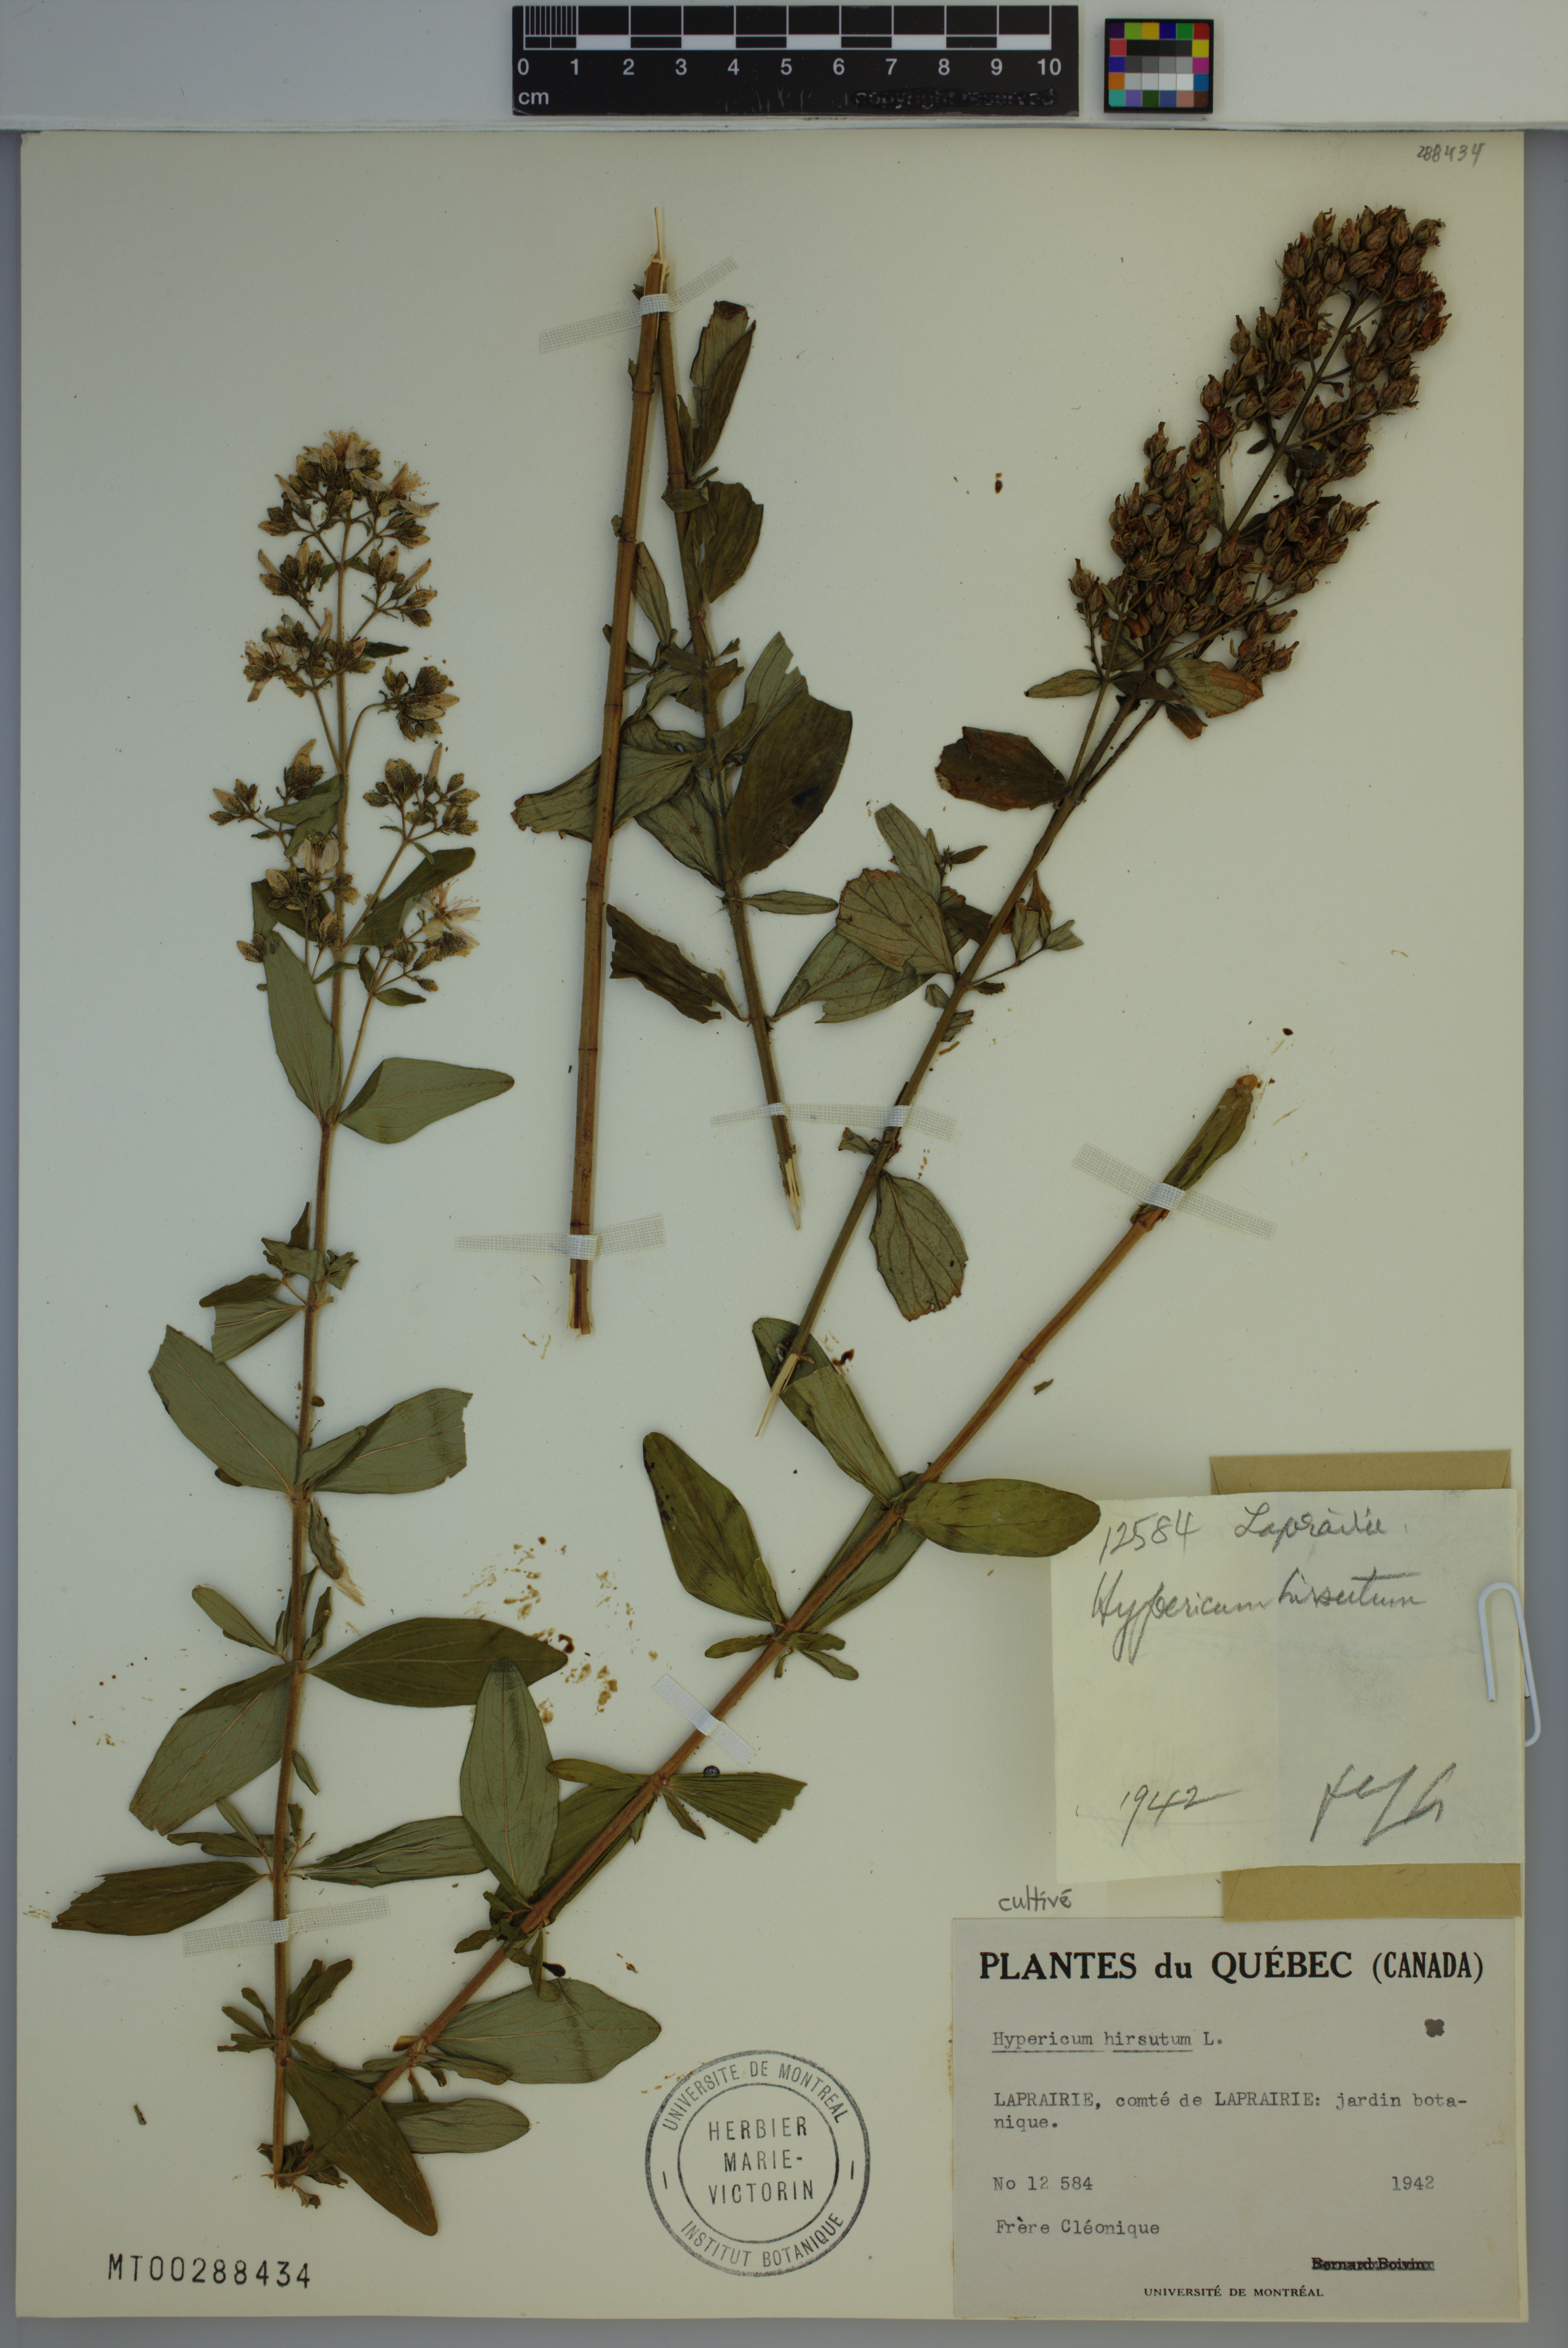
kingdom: Plantae
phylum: Tracheophyta
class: Magnoliopsida
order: Malpighiales
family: Hypericaceae
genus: Hypericum
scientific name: Hypericum hirsutum
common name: Hairy st. john's-wort
